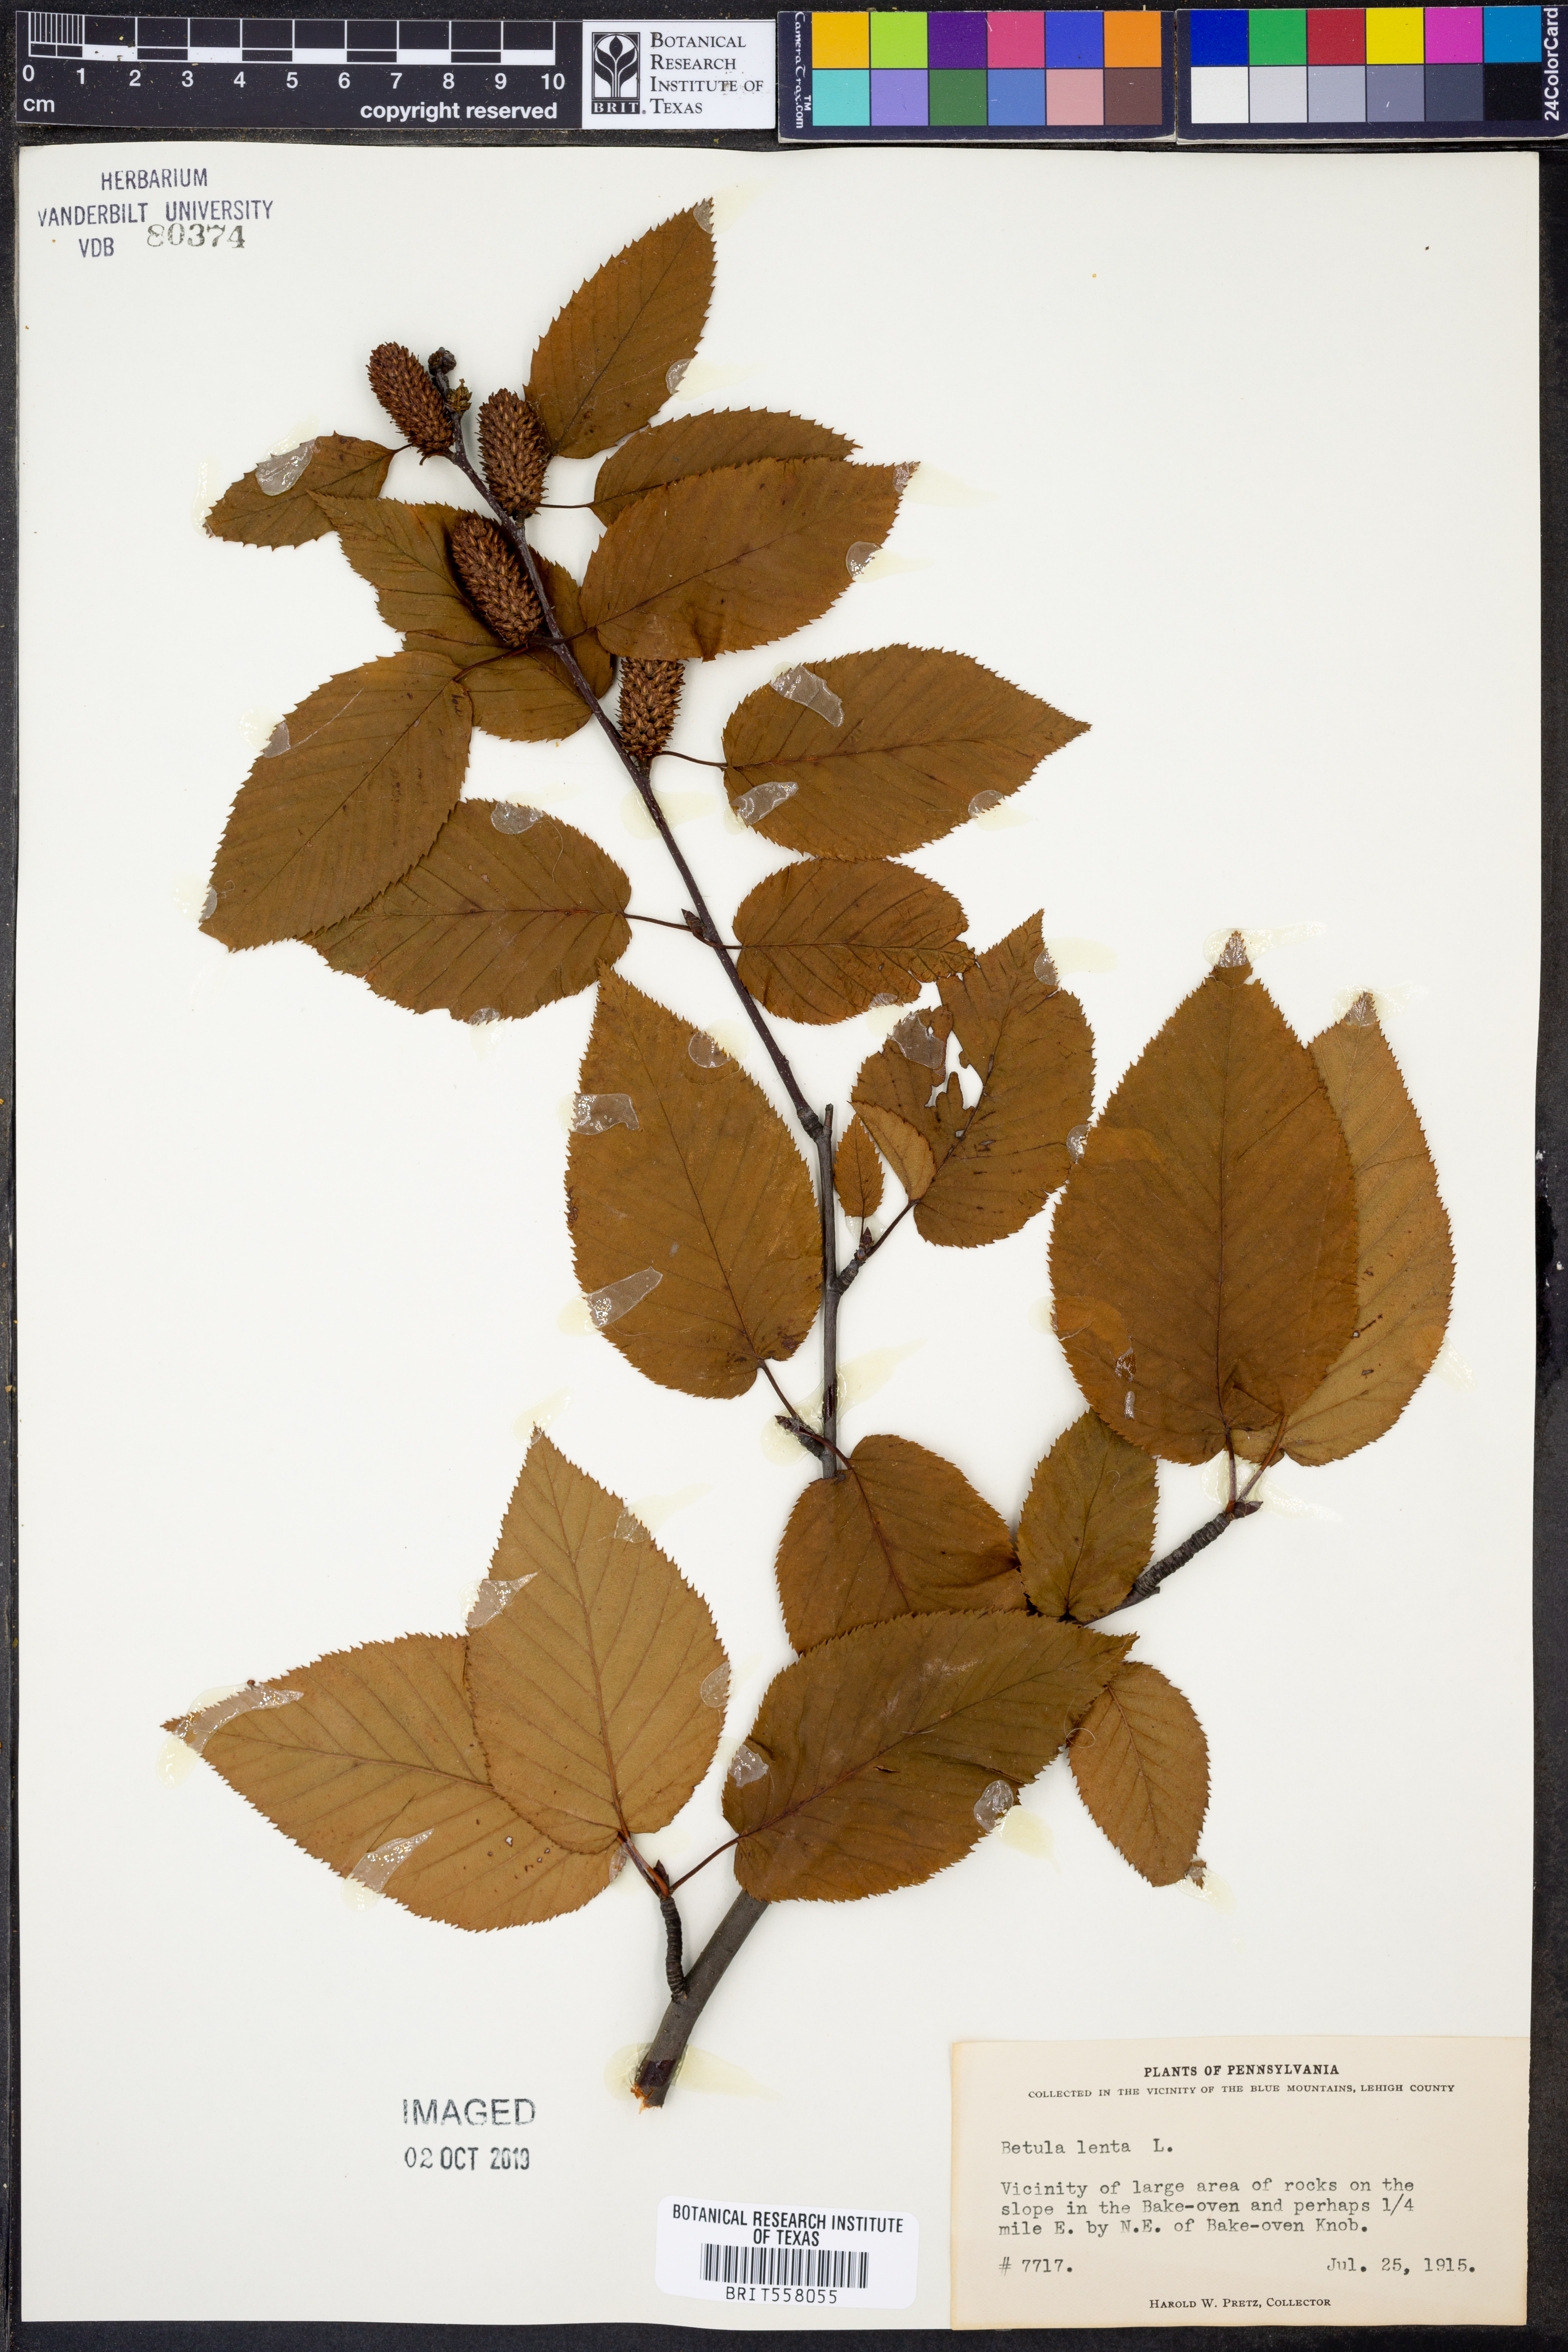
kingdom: Plantae
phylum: Tracheophyta
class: Magnoliopsida
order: Fagales
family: Betulaceae
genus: Betula
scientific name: Betula lenta
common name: Black birch
